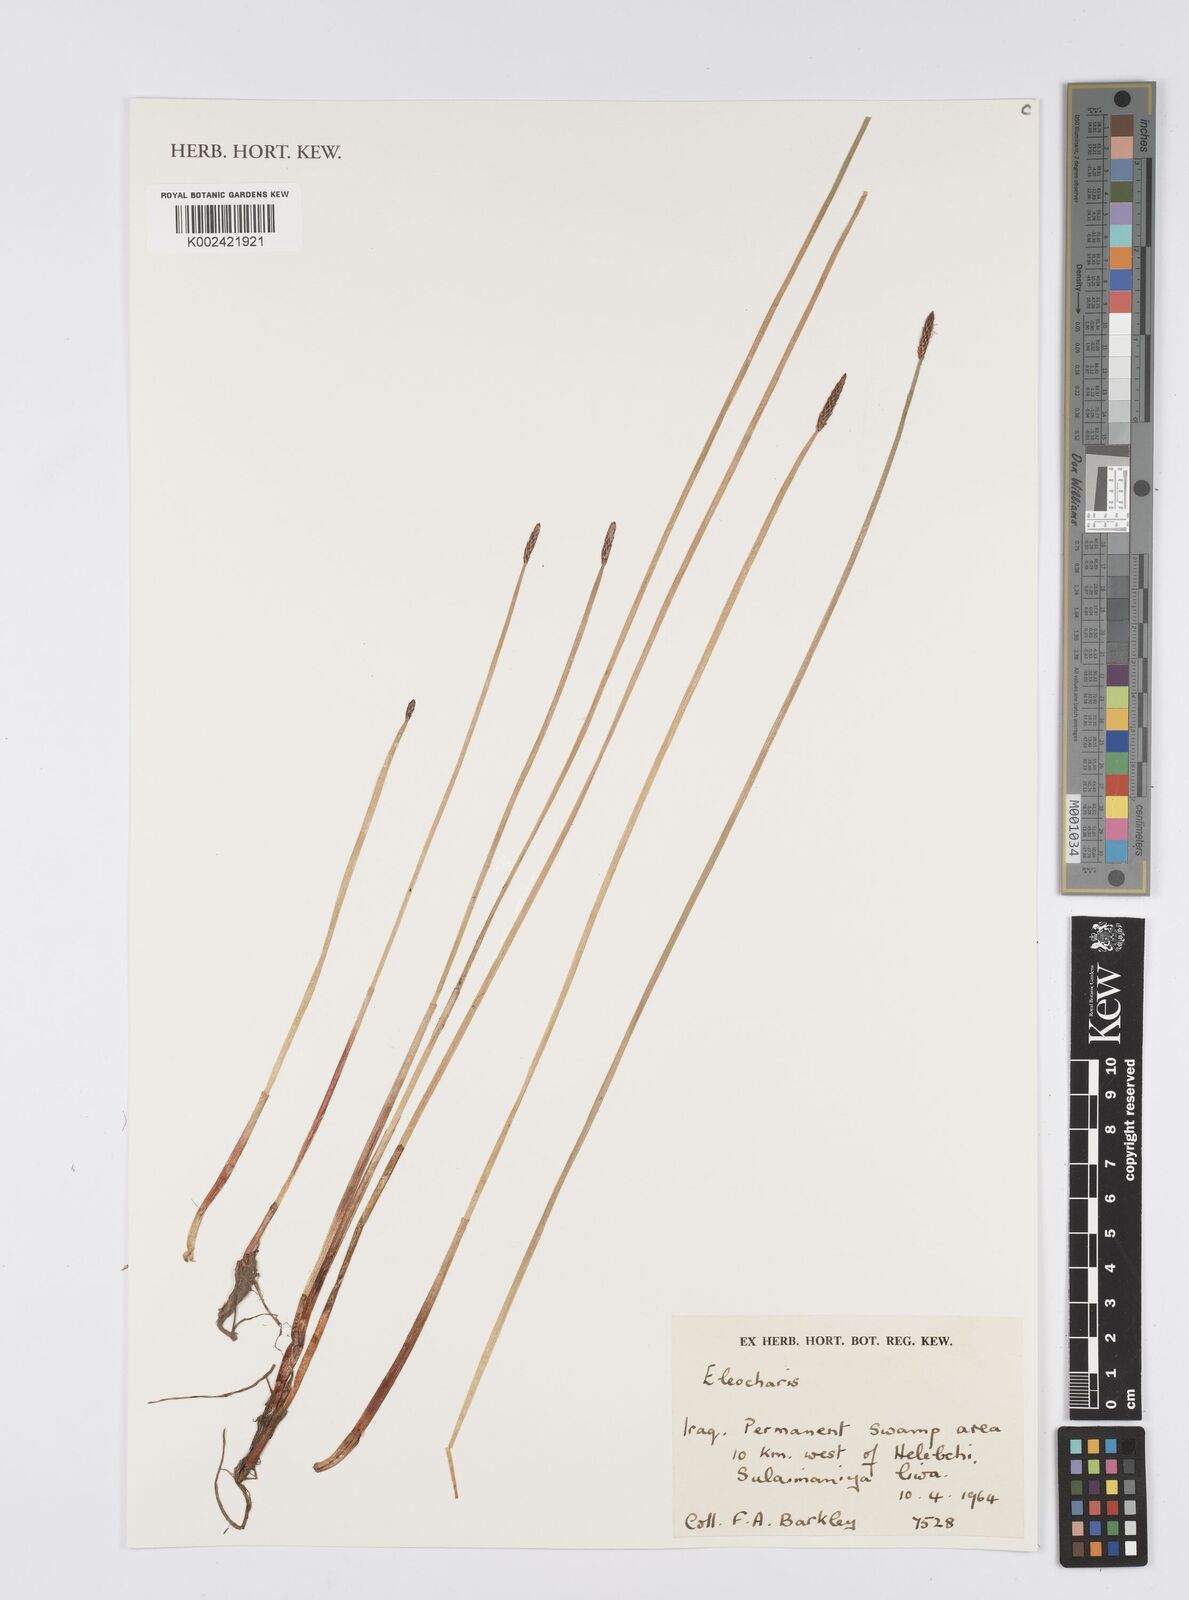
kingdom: Plantae
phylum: Tracheophyta
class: Liliopsida
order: Poales
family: Cyperaceae
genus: Eleocharis
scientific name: Eleocharis
